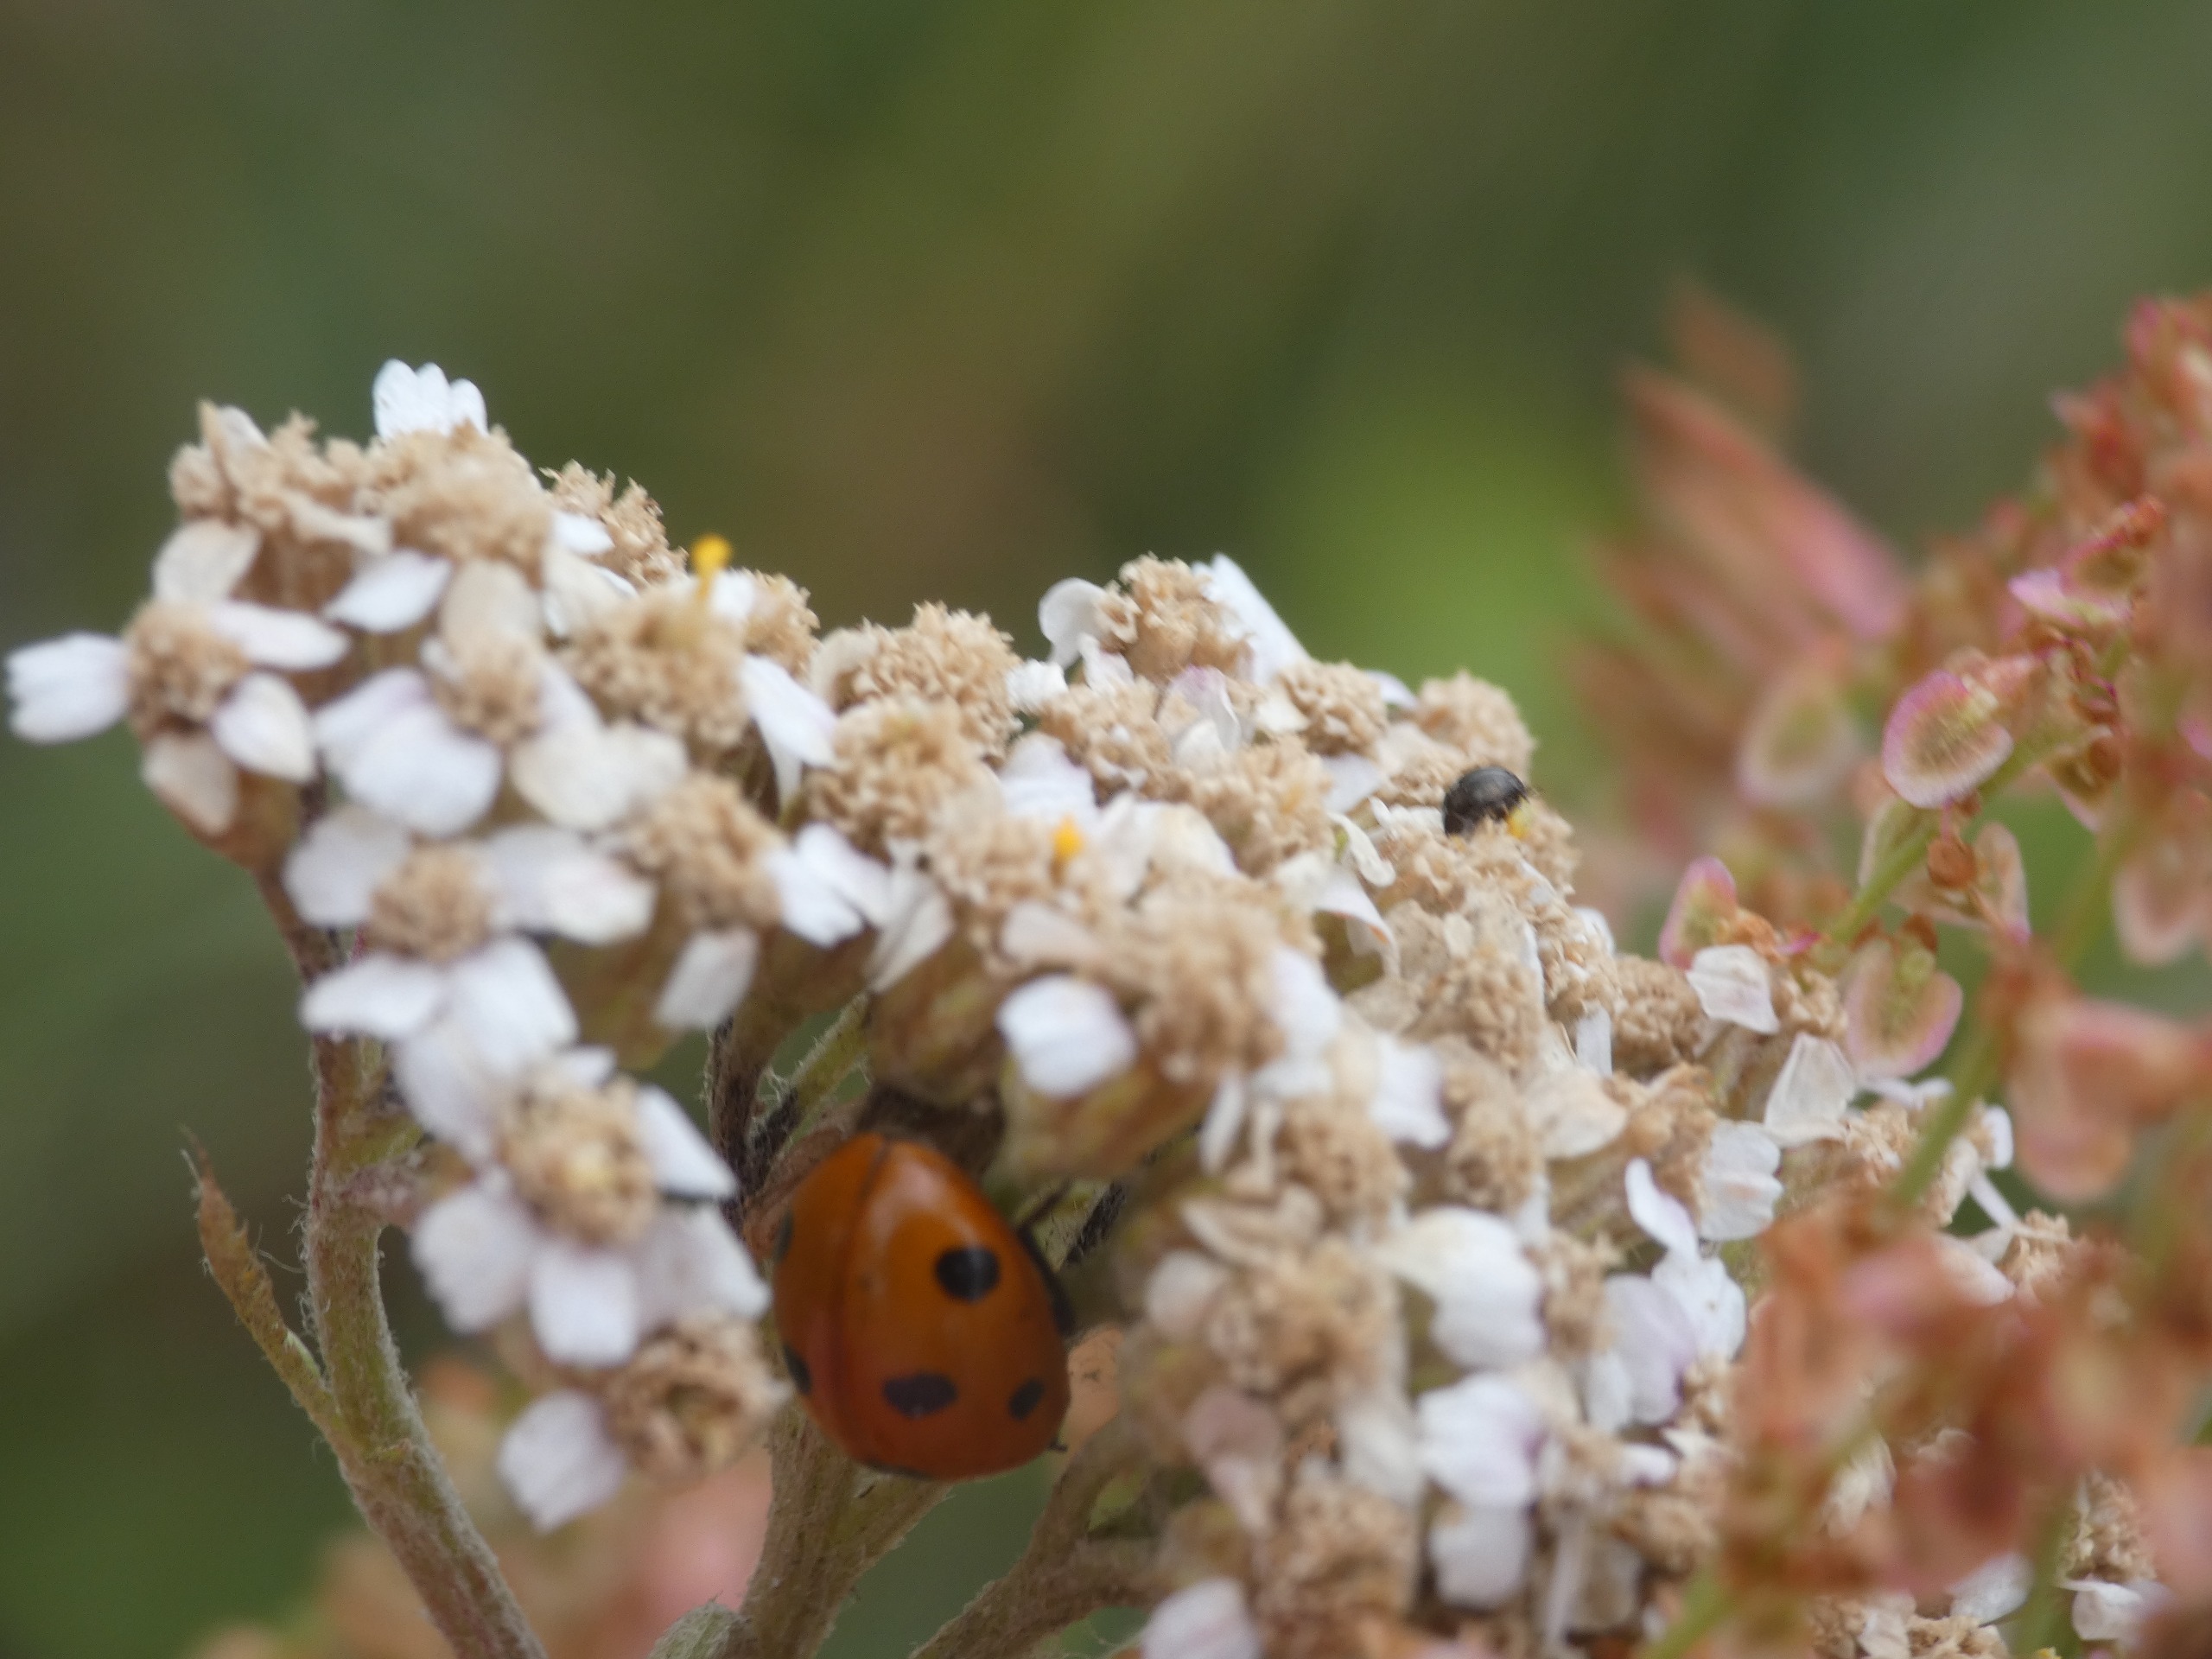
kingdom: Animalia
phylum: Arthropoda
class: Insecta
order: Coleoptera
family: Coccinellidae
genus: Coccinella
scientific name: Coccinella septempunctata
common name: Syvplettet mariehøne
